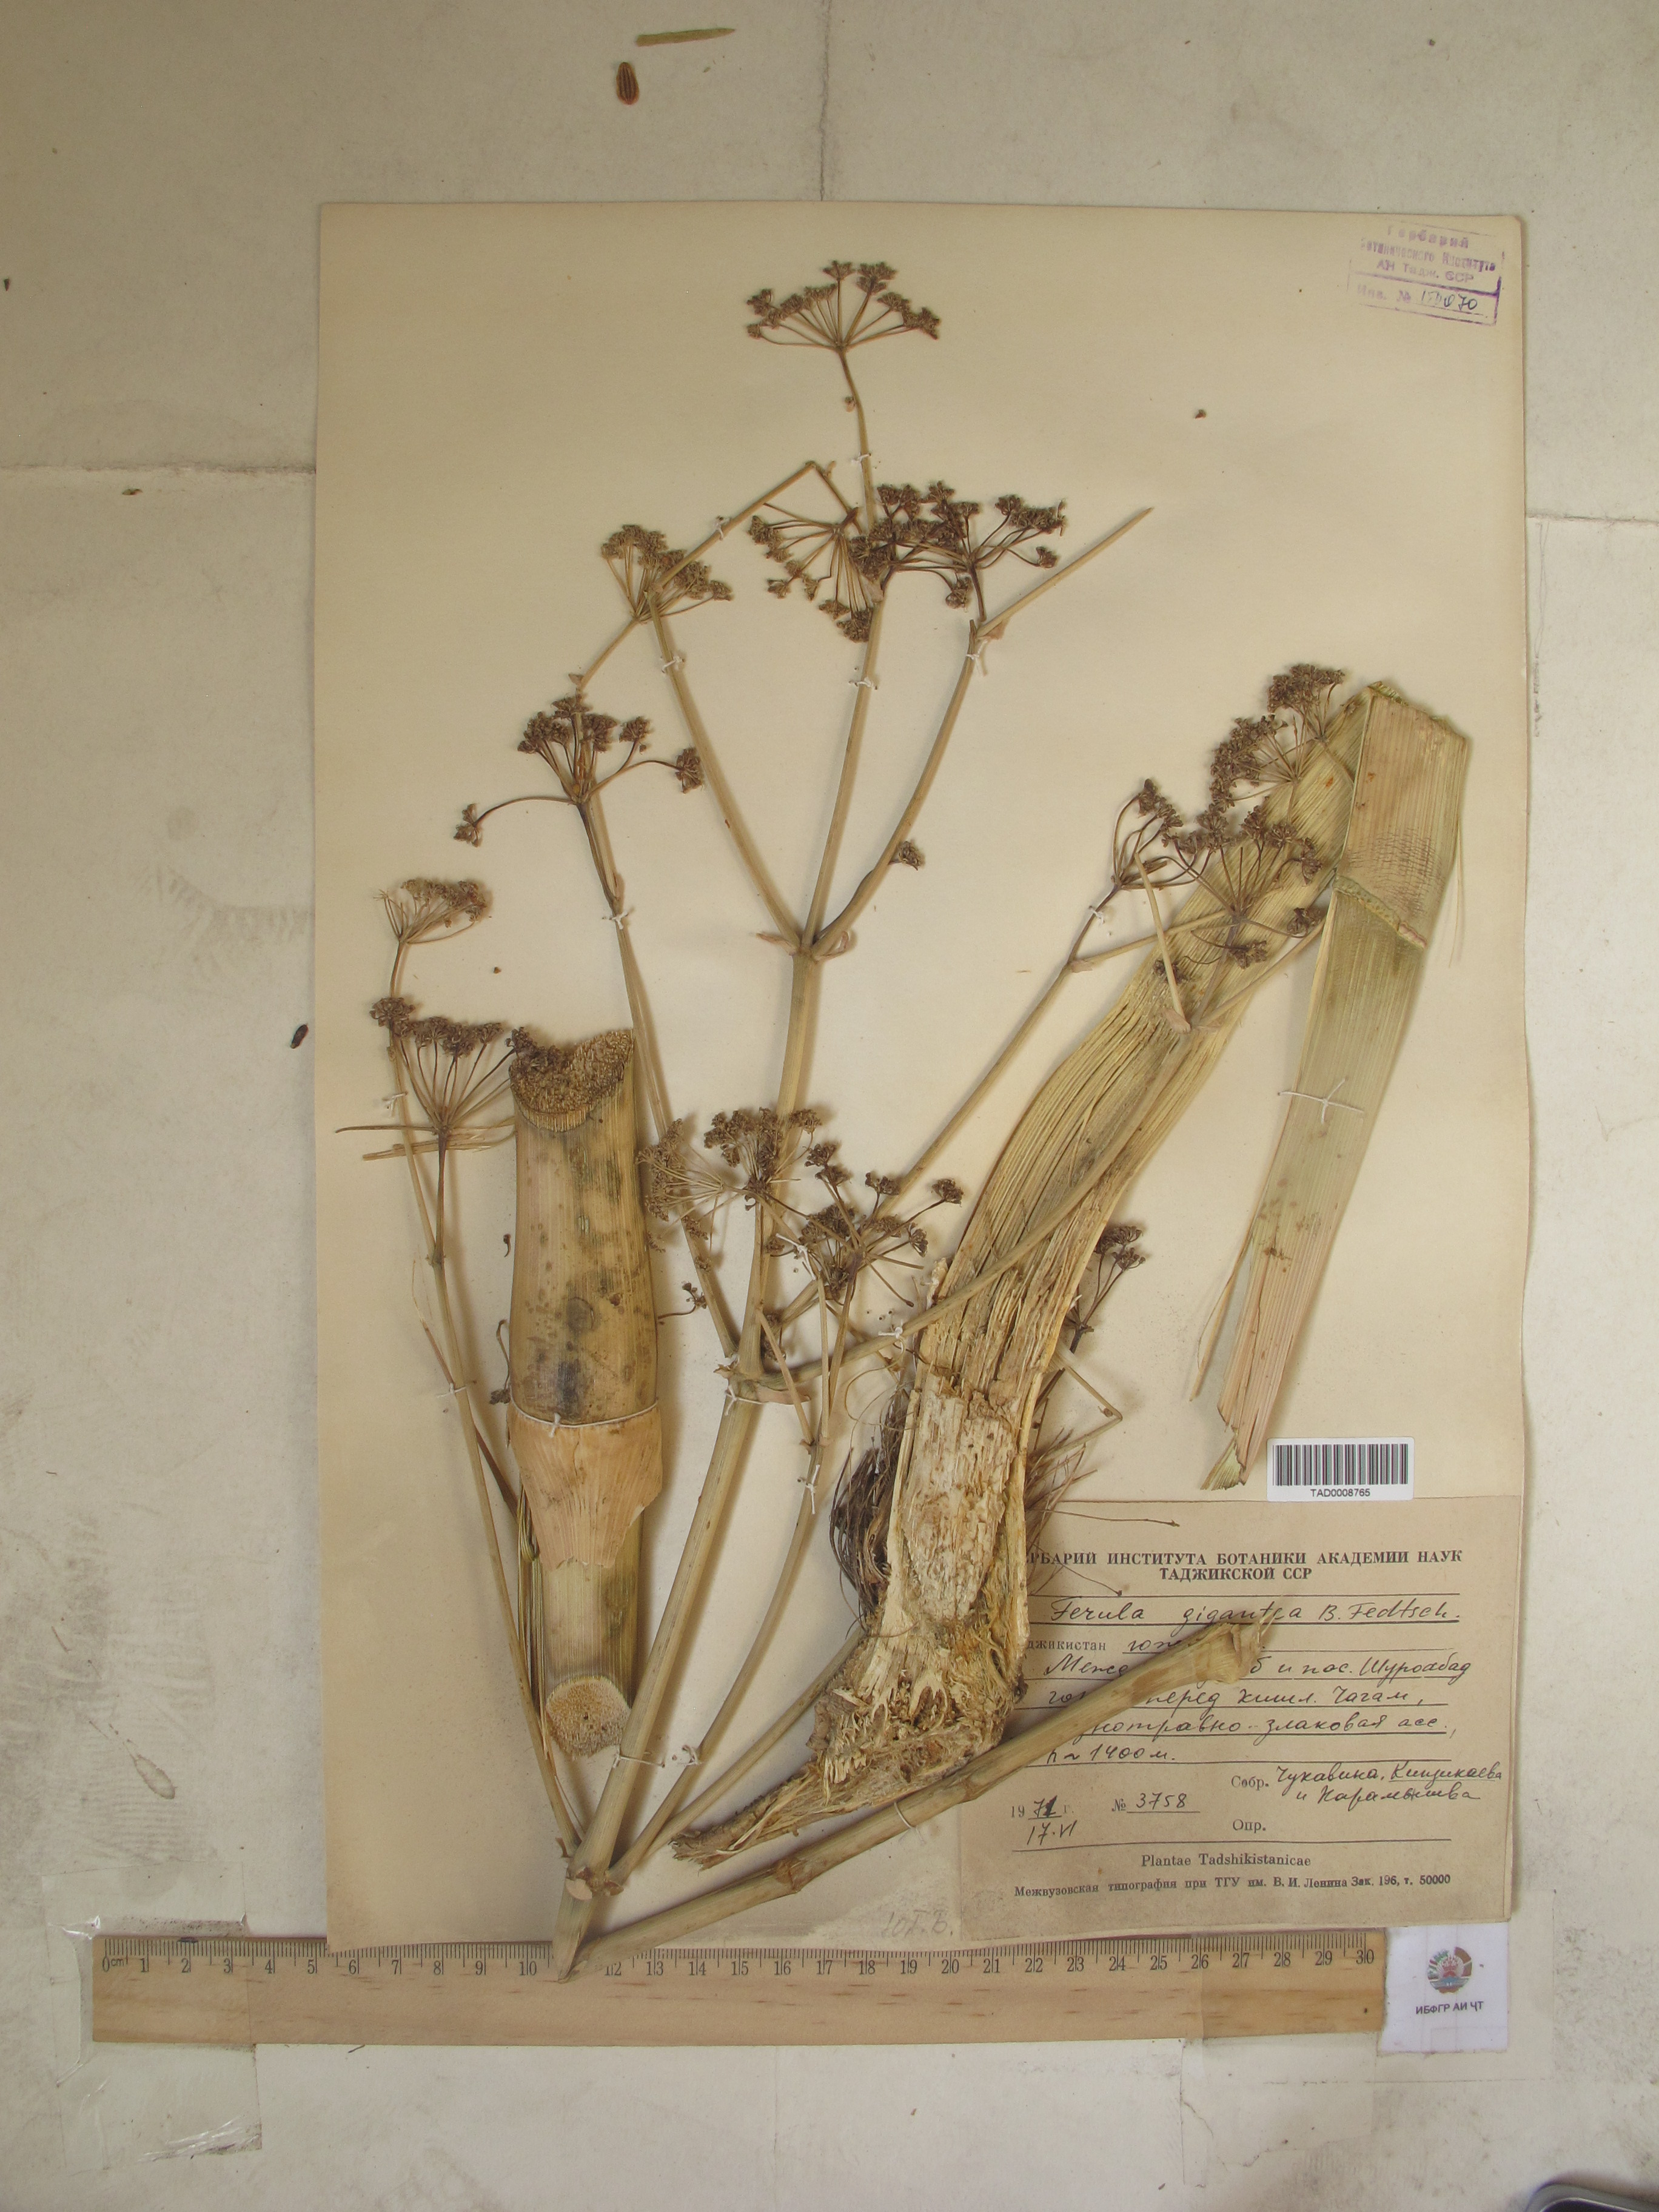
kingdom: Plantae
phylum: Tracheophyta
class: Magnoliopsida
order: Apiales
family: Apiaceae
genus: Ferula
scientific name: Ferula gigantea
